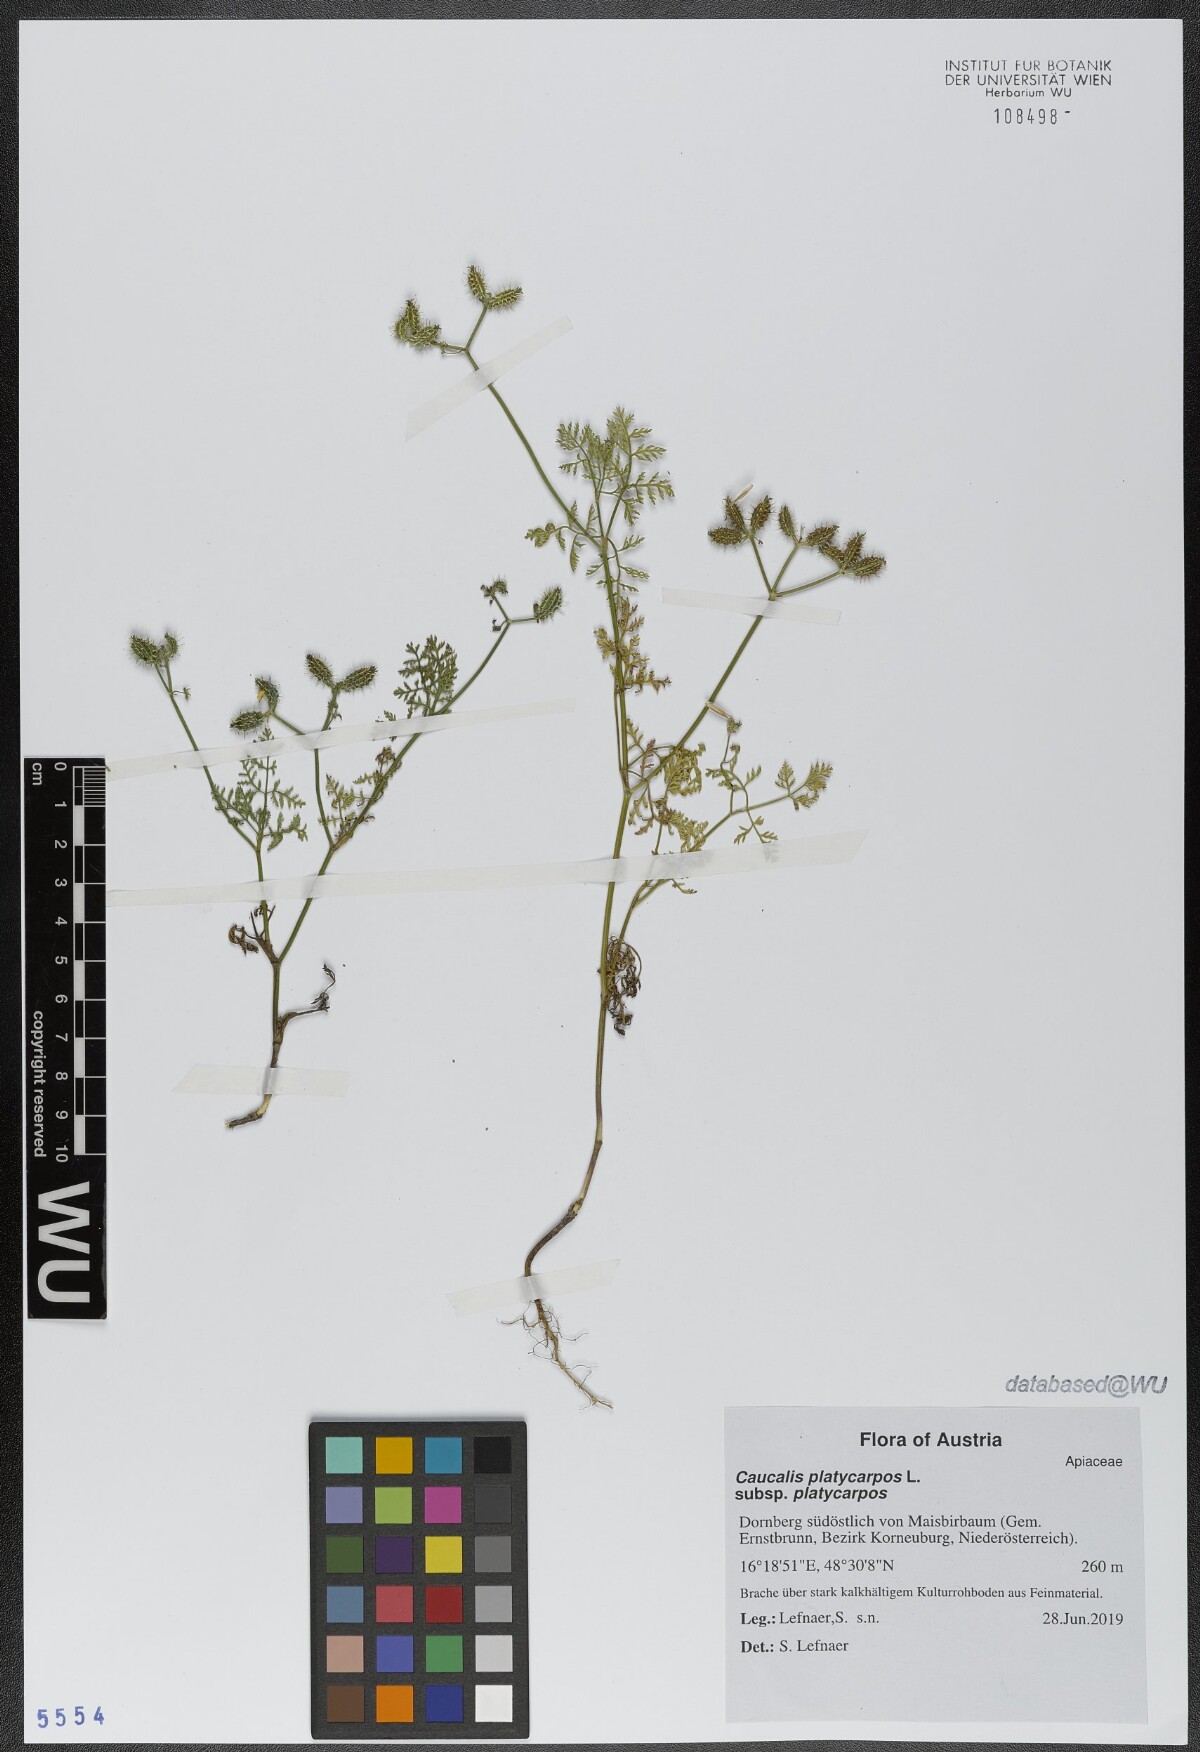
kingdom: Plantae
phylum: Tracheophyta
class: Magnoliopsida
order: Apiales
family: Apiaceae
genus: Caucalis
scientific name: Caucalis platycarpos
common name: Small bur-parsley
